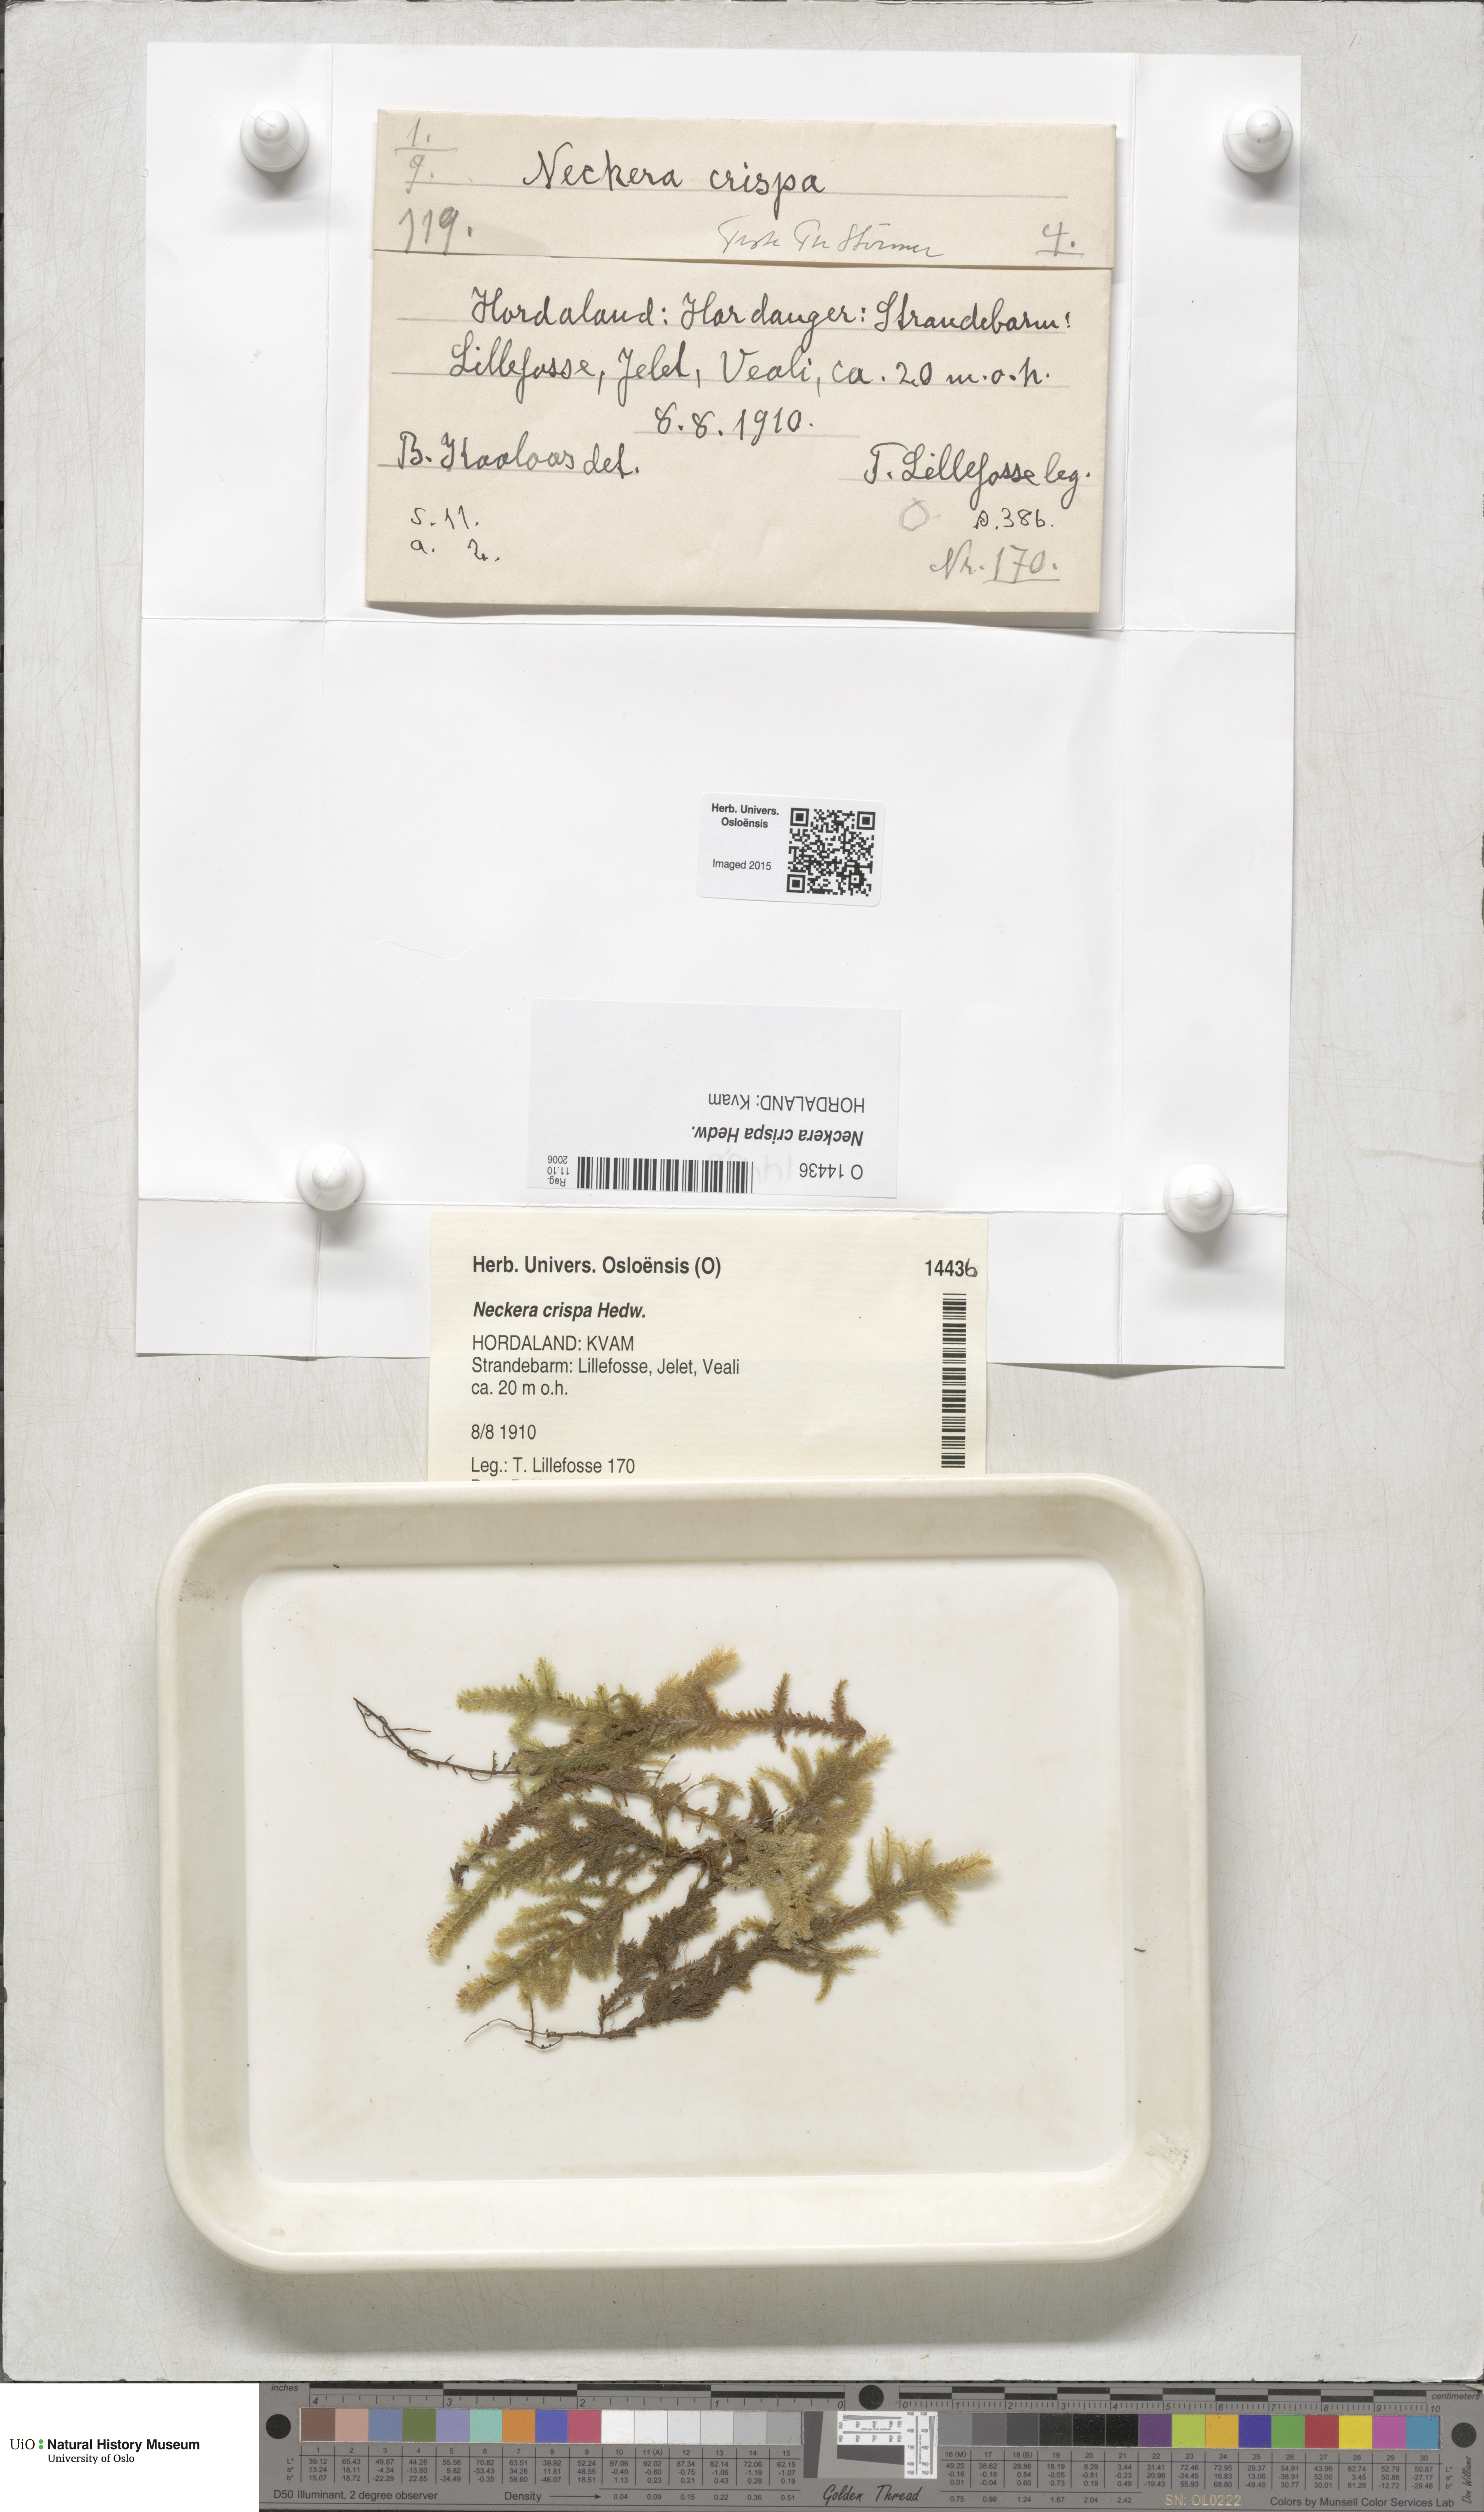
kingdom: Plantae
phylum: Bryophyta
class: Bryopsida
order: Hypnales
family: Neckeraceae
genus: Exsertotheca
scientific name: Exsertotheca crispa
